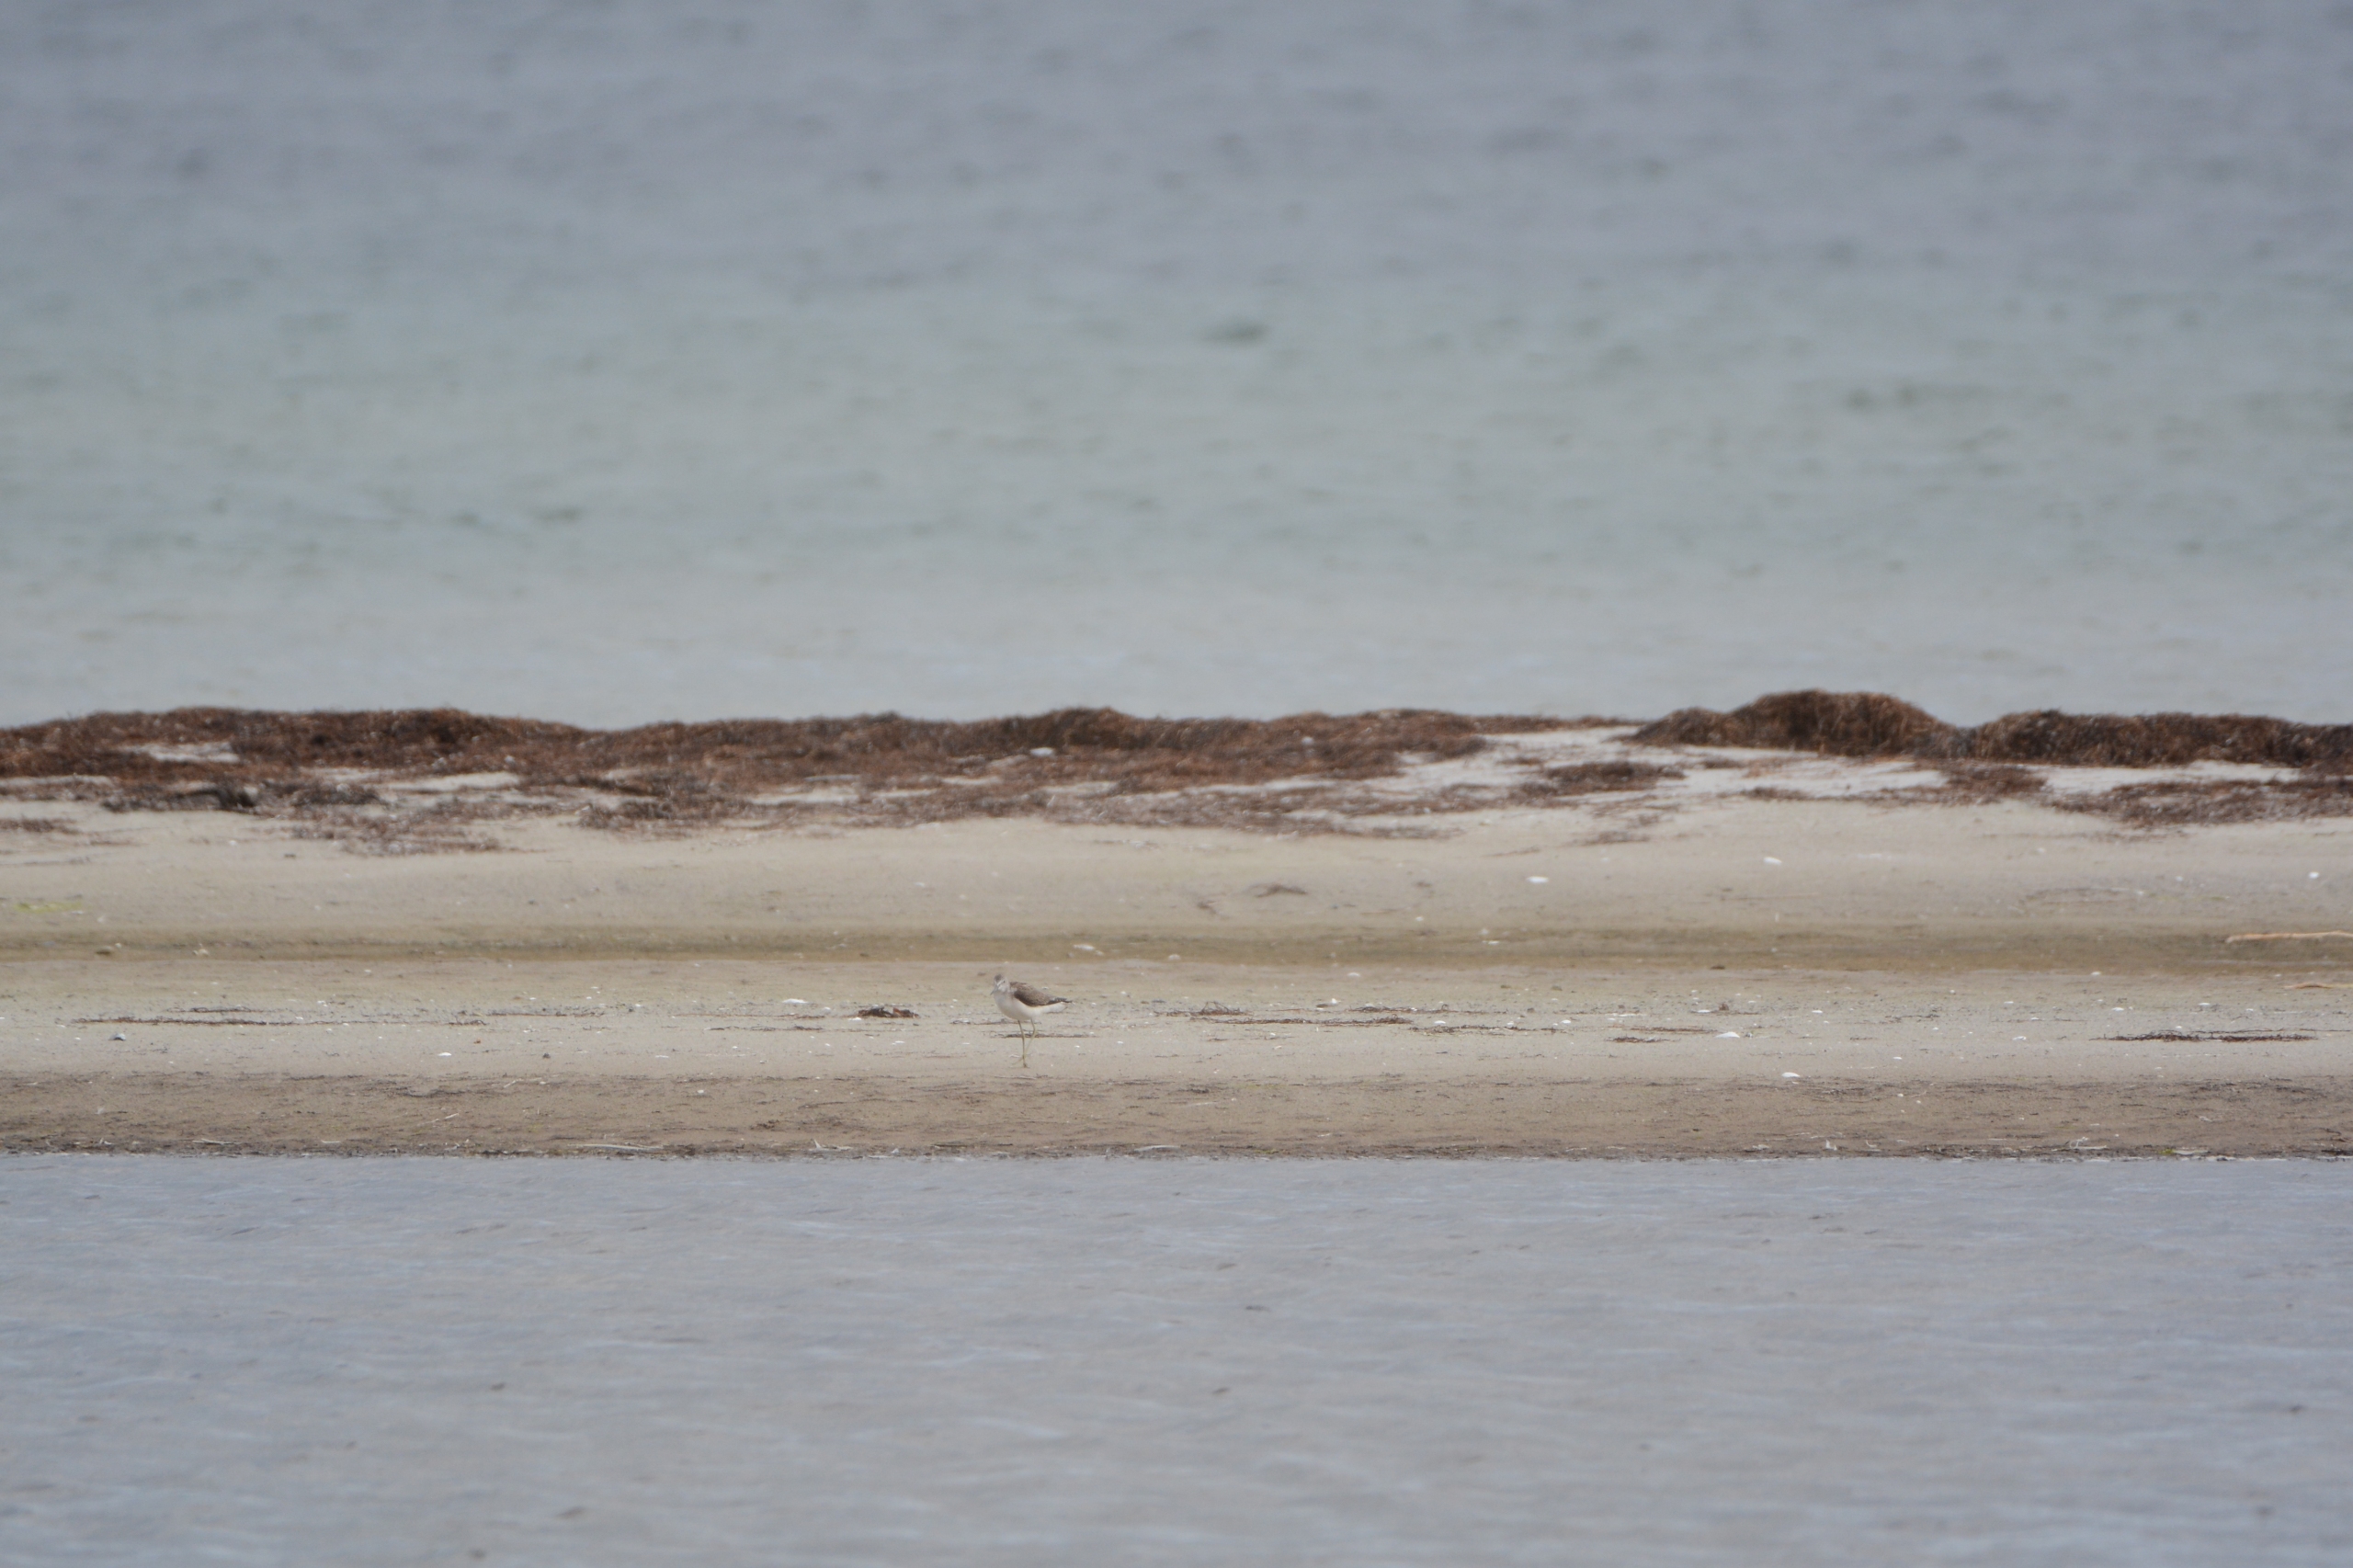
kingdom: Animalia
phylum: Chordata
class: Aves
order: Charadriiformes
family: Scolopacidae
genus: Tringa
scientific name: Tringa nebularia
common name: Hvidklire
